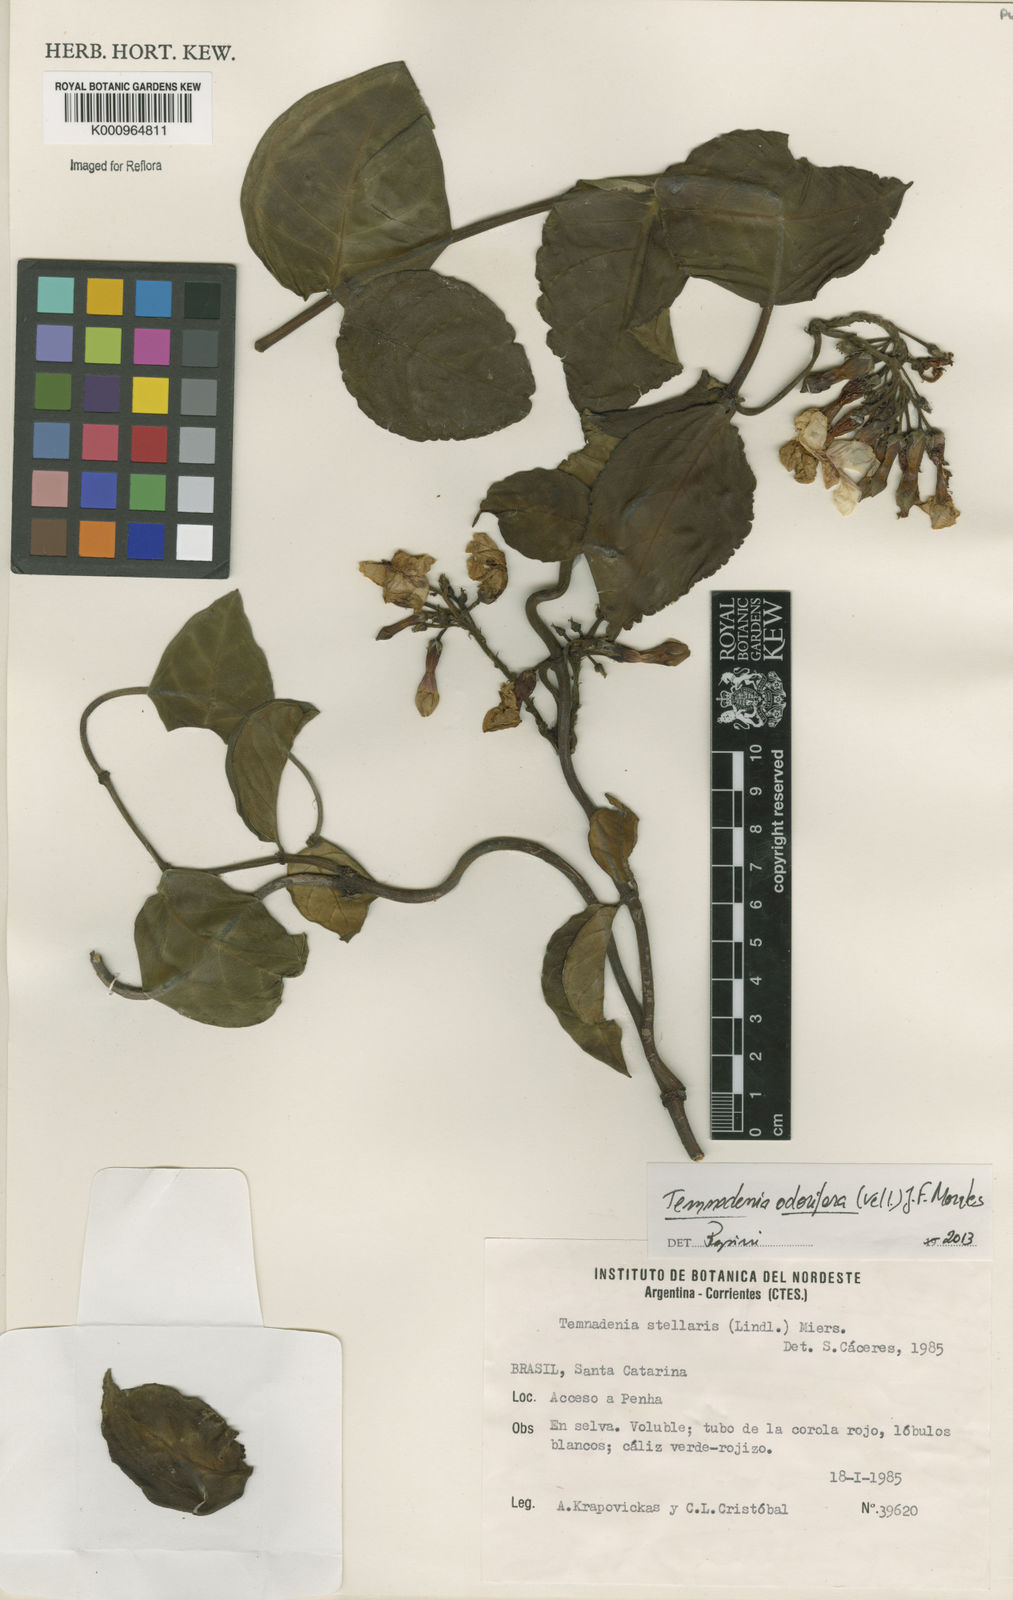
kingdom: Plantae
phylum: Tracheophyta
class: Magnoliopsida
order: Gentianales
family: Apocynaceae
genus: Temnadenia
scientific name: Temnadenia odorifera
